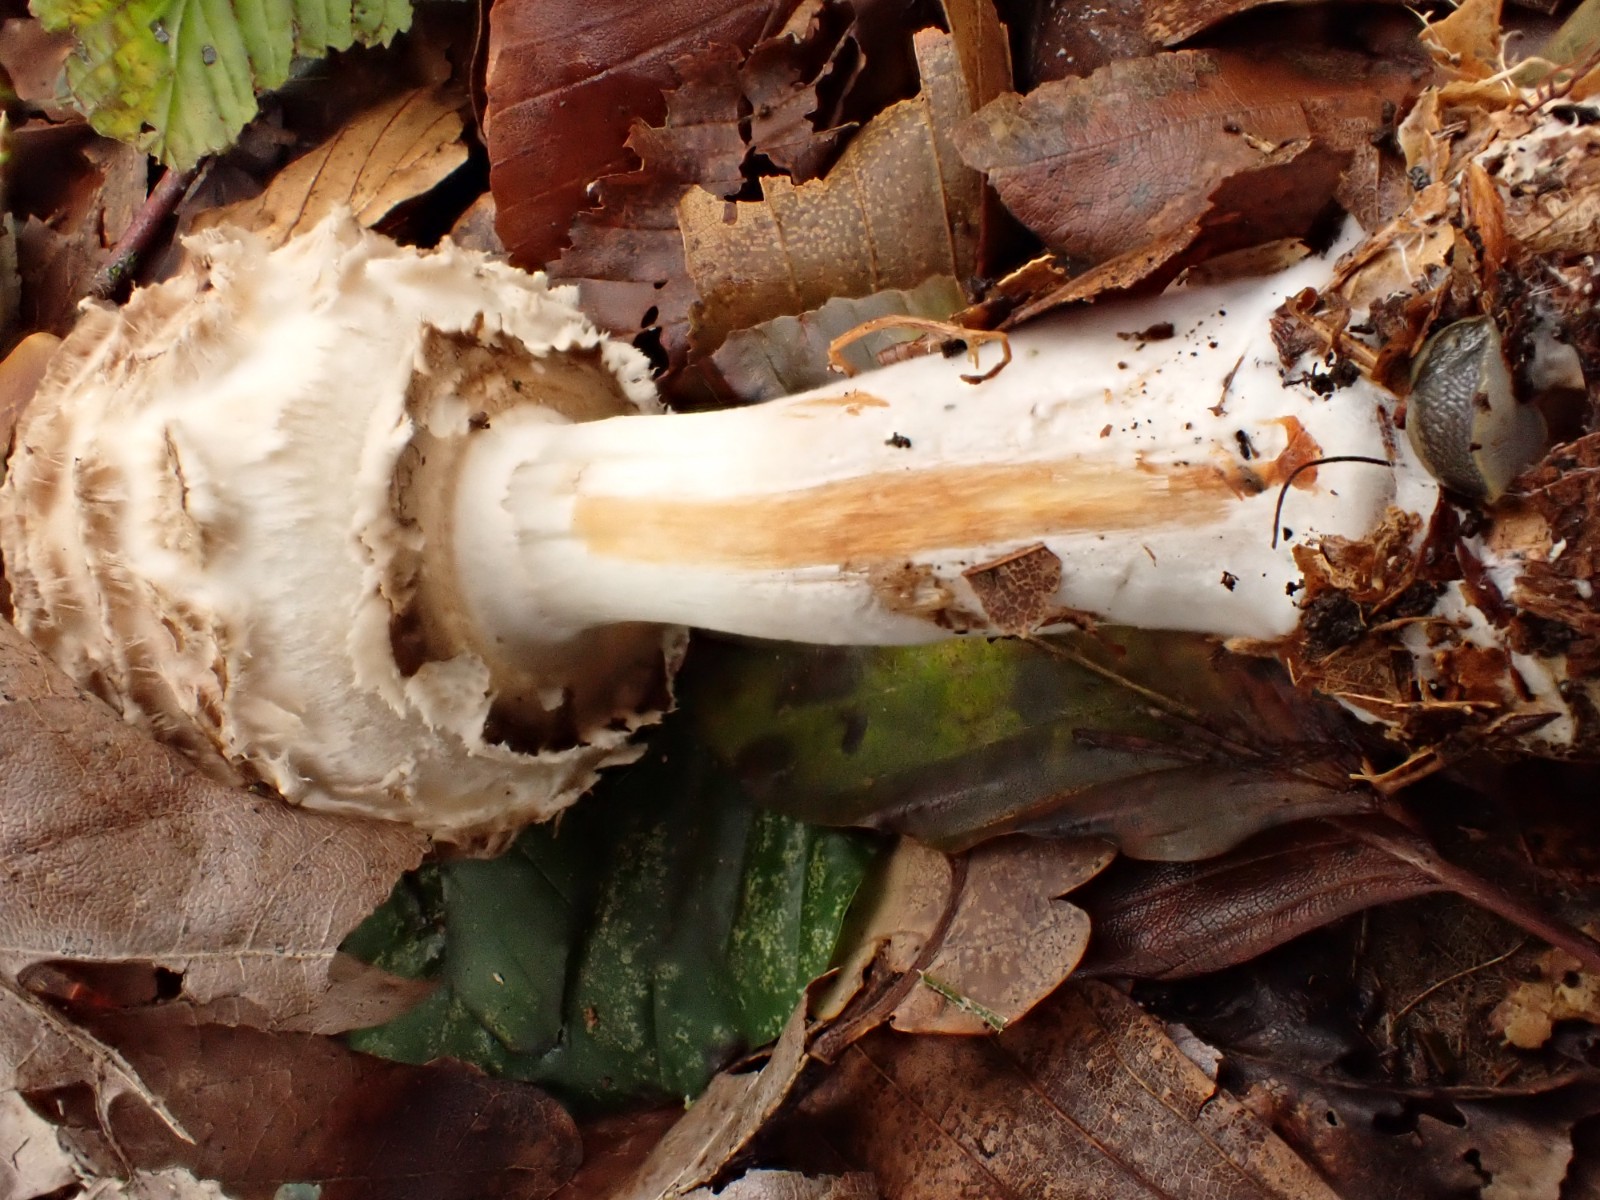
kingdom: Fungi
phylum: Basidiomycota
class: Agaricomycetes
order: Agaricales
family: Agaricaceae
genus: Chlorophyllum
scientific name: Chlorophyllum olivieri
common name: almindelig rabarberhat
